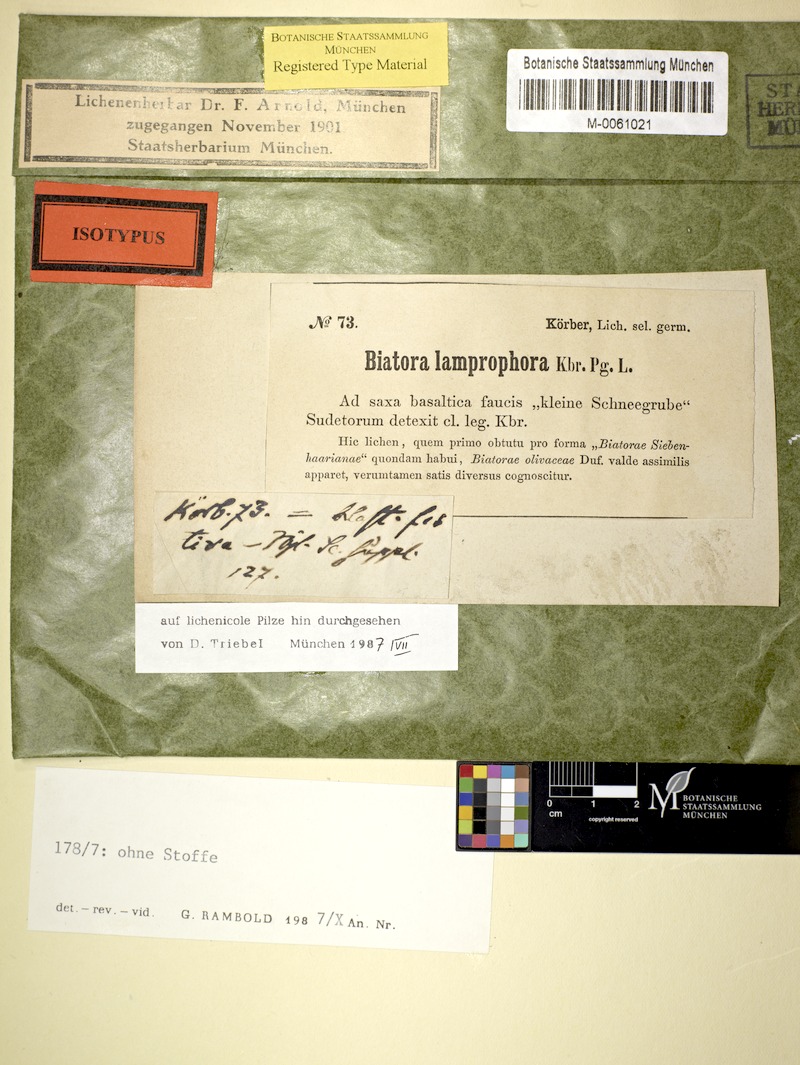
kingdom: Fungi
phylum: Ascomycota
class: Lecanoromycetes
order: Lecanorales
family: Gypsoplacaceae
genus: Fritzea
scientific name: Fritzea lamprophora
